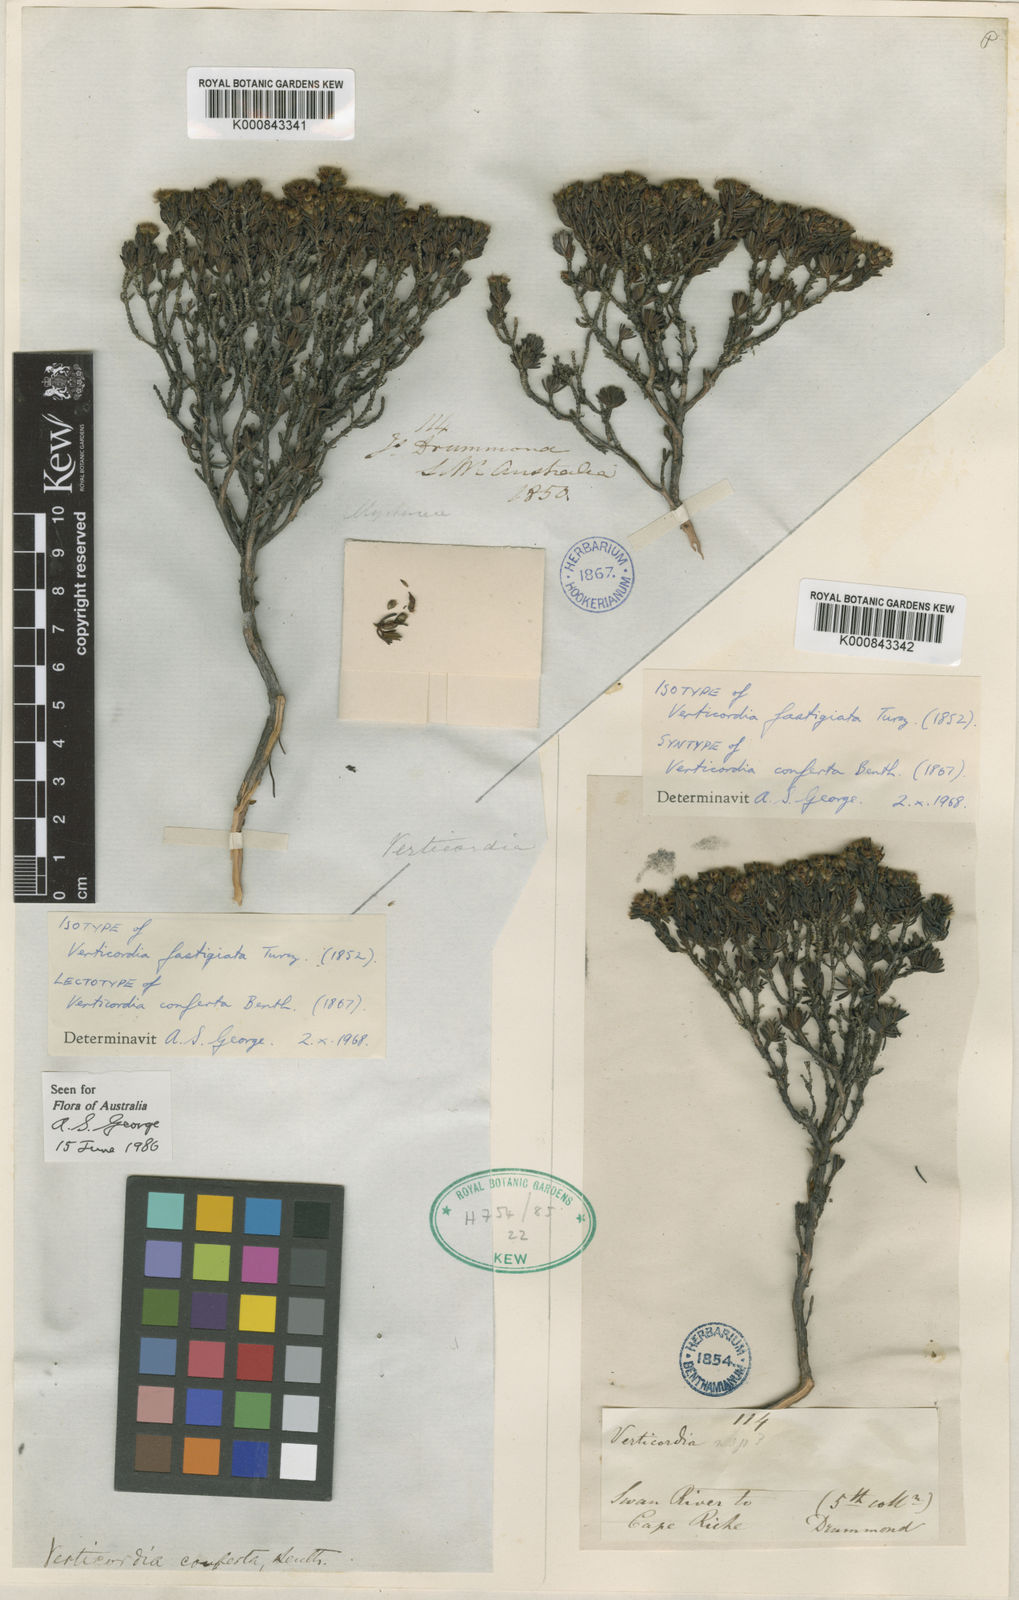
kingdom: Plantae
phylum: Tracheophyta
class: Magnoliopsida
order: Myrtales
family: Myrtaceae
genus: Verticordia
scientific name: Verticordia fastigiata
